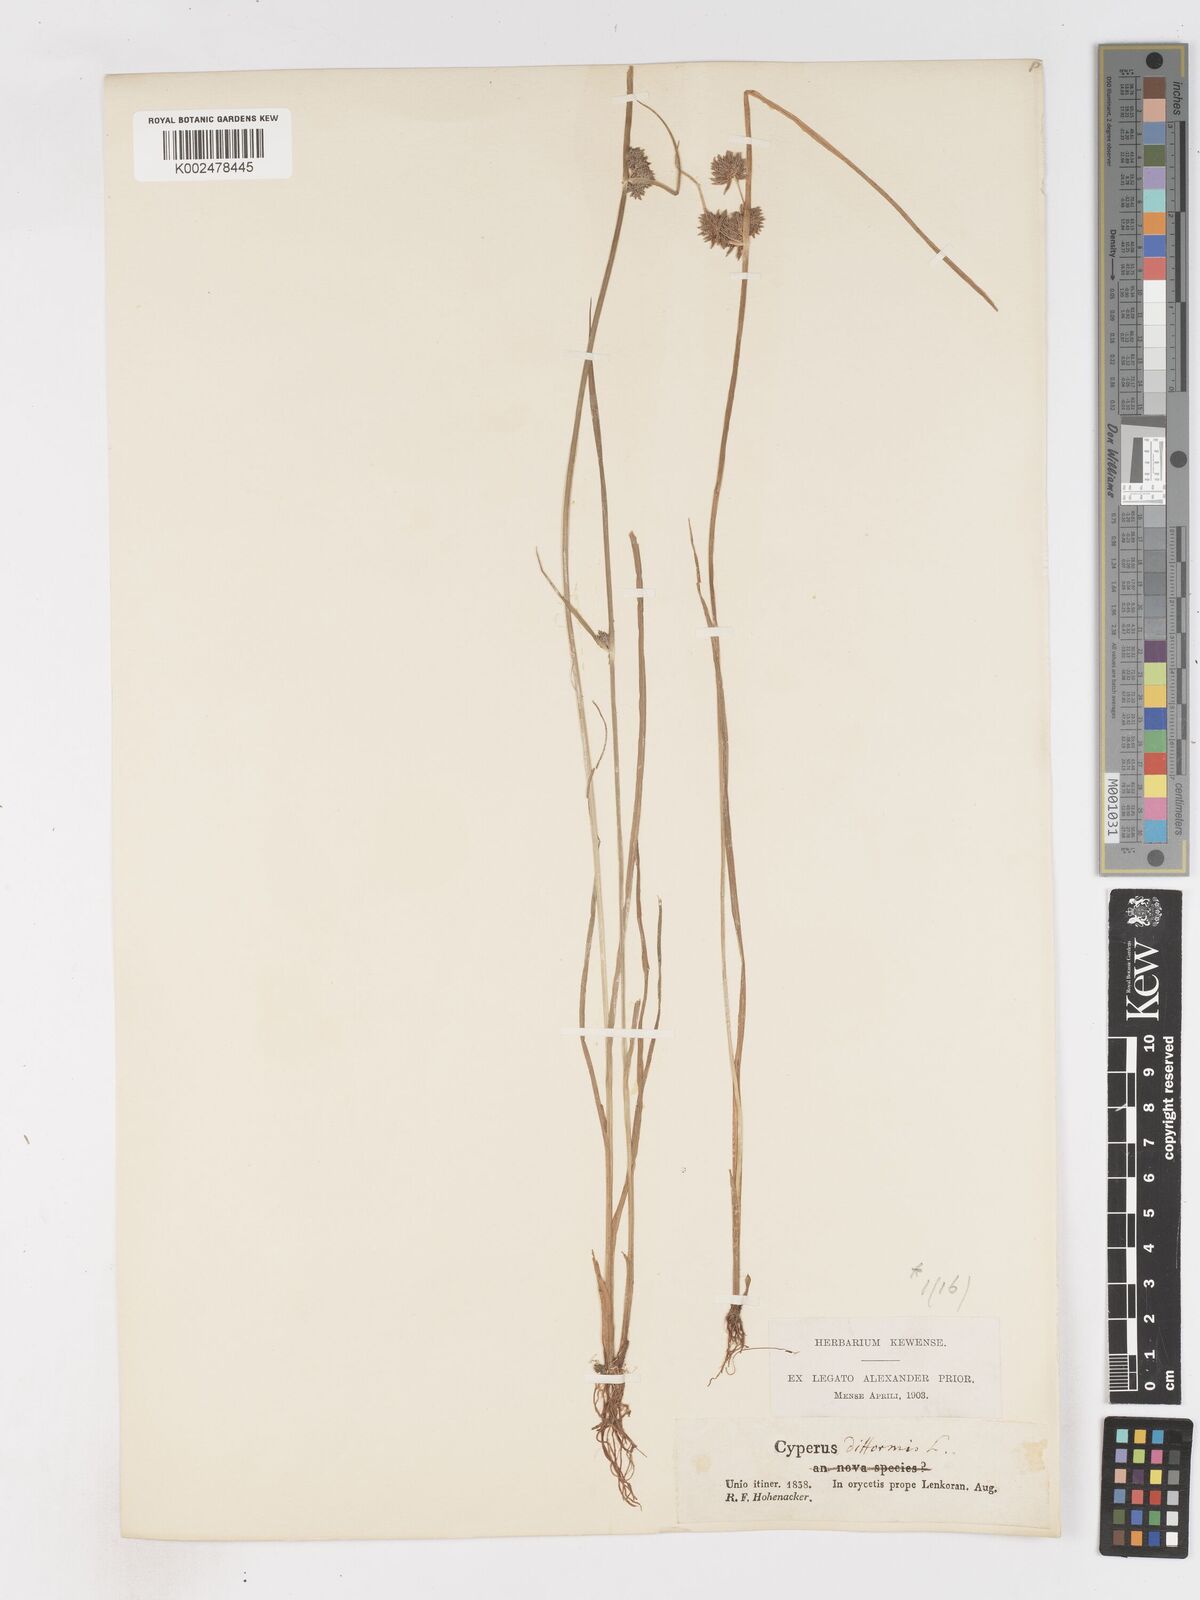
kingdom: Plantae
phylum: Tracheophyta
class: Liliopsida
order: Poales
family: Cyperaceae
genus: Cyperus
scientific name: Cyperus difformis
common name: Variable flatsedge
